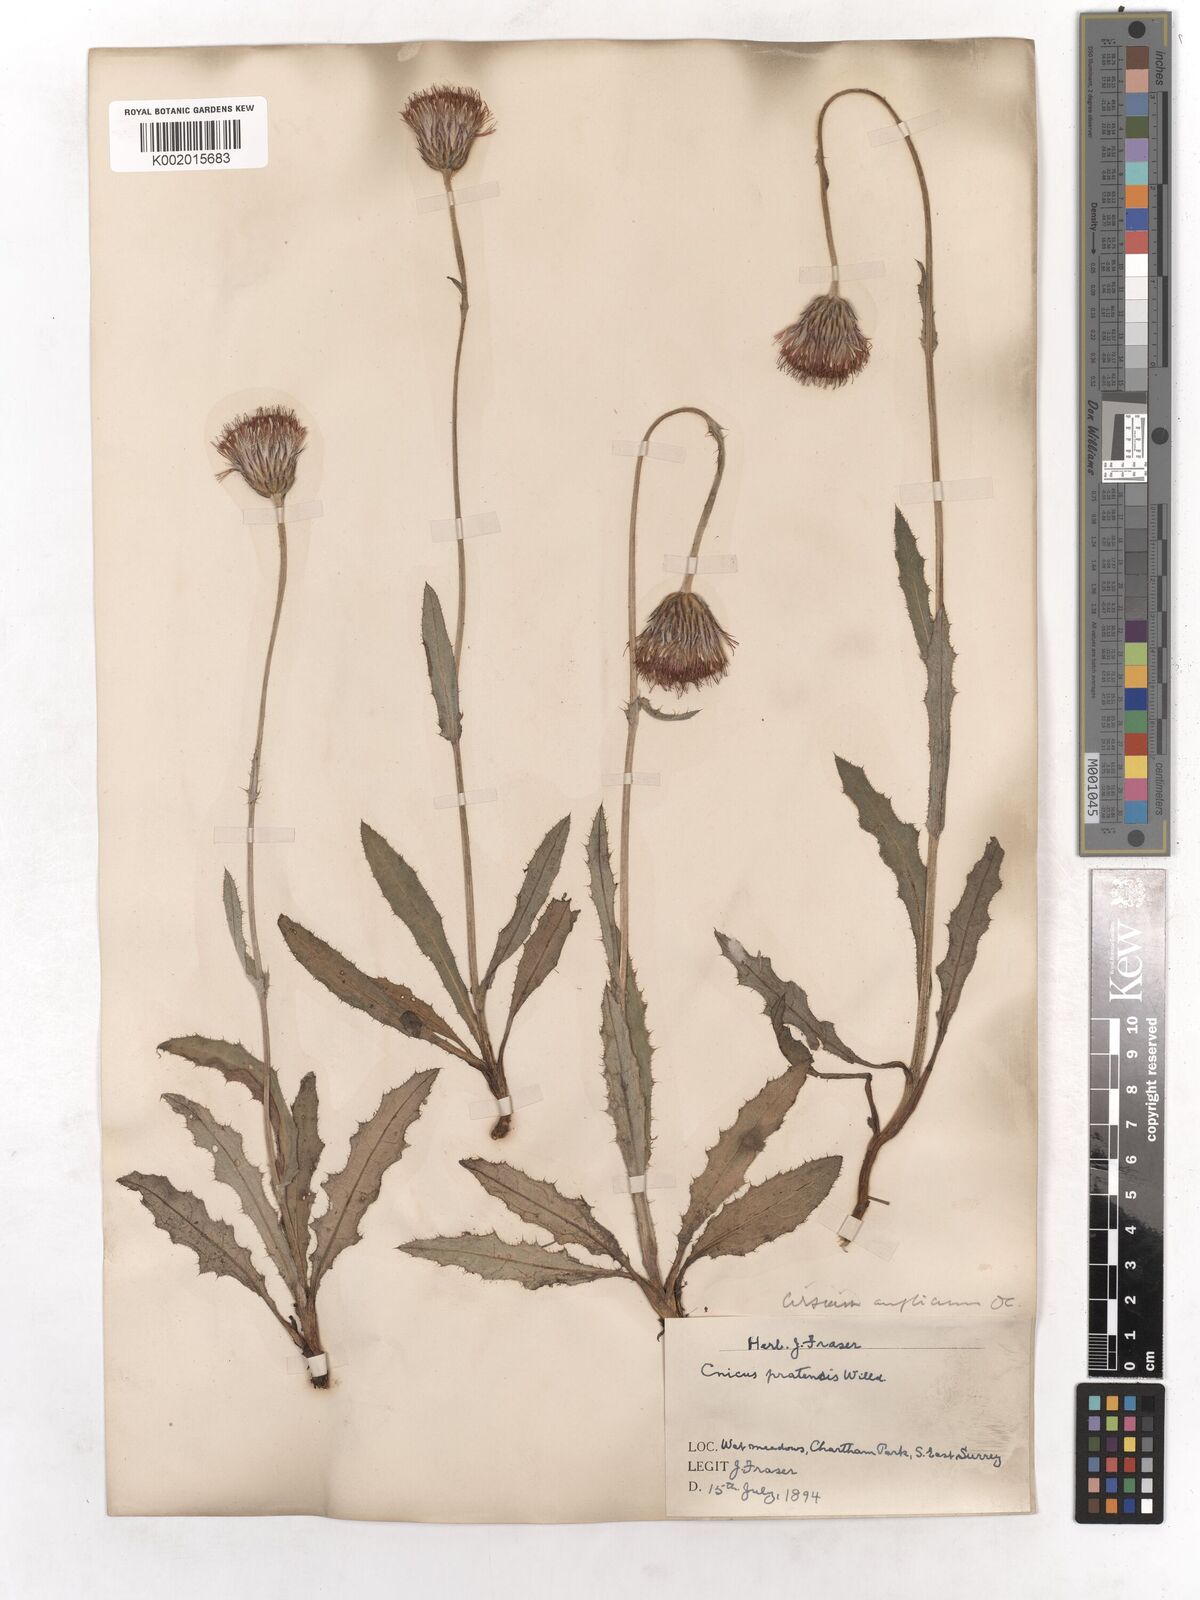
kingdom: Plantae
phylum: Tracheophyta
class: Magnoliopsida
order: Asterales
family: Asteraceae
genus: Cirsium
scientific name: Cirsium dissectum
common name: Meadow thistle
